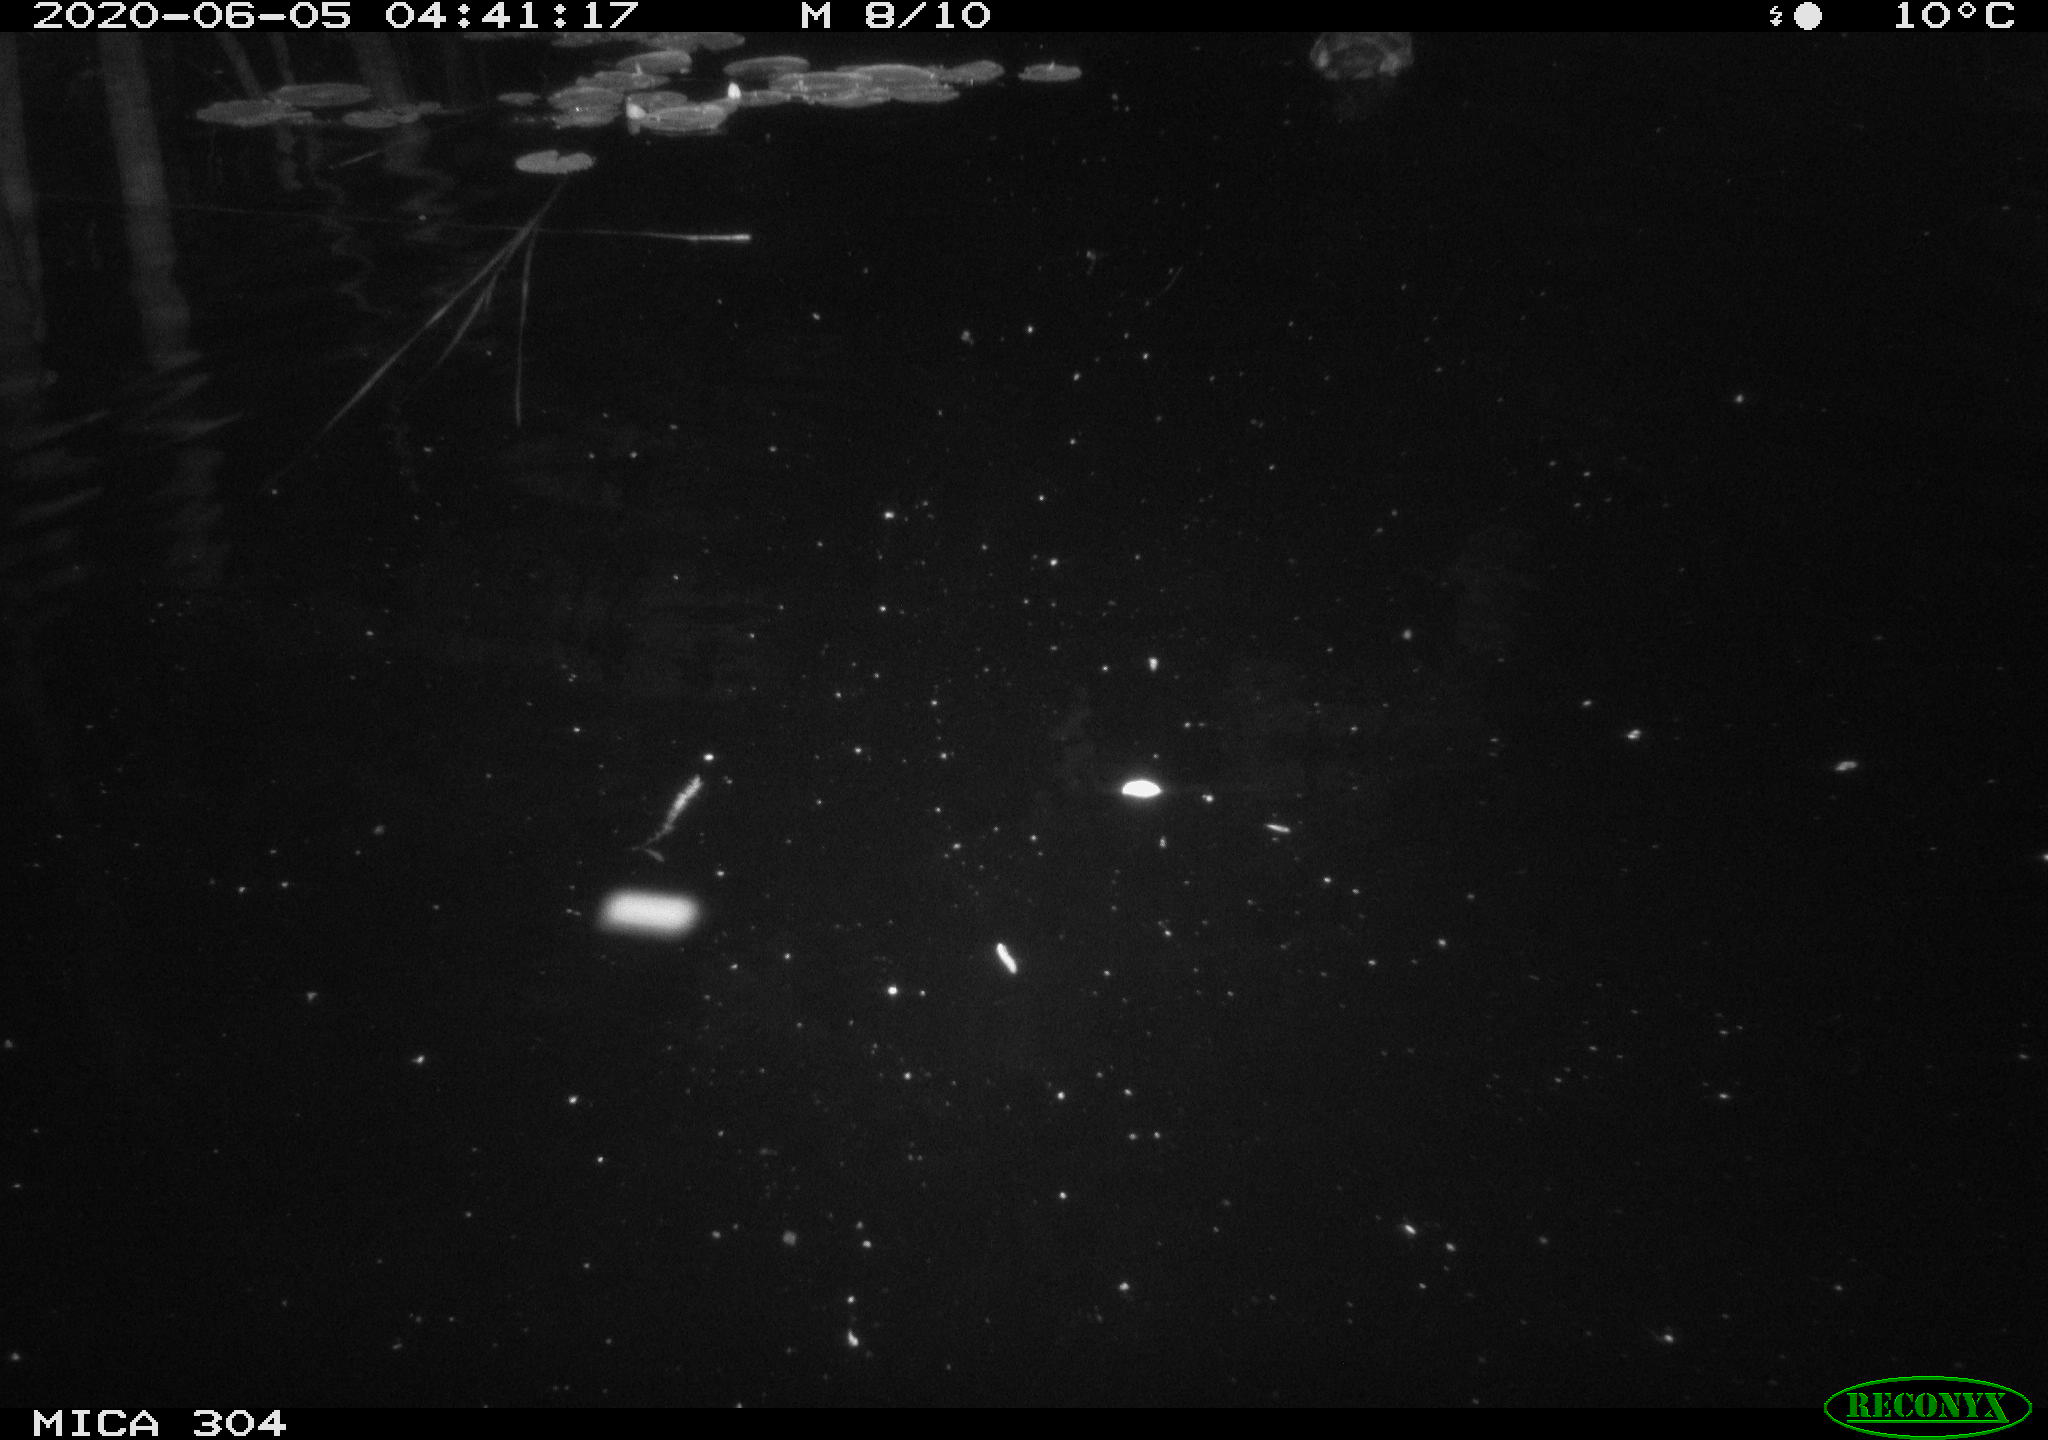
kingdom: Animalia
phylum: Chordata
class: Aves
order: Anseriformes
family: Anatidae
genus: Anas
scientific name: Anas platyrhynchos
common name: Mallard
